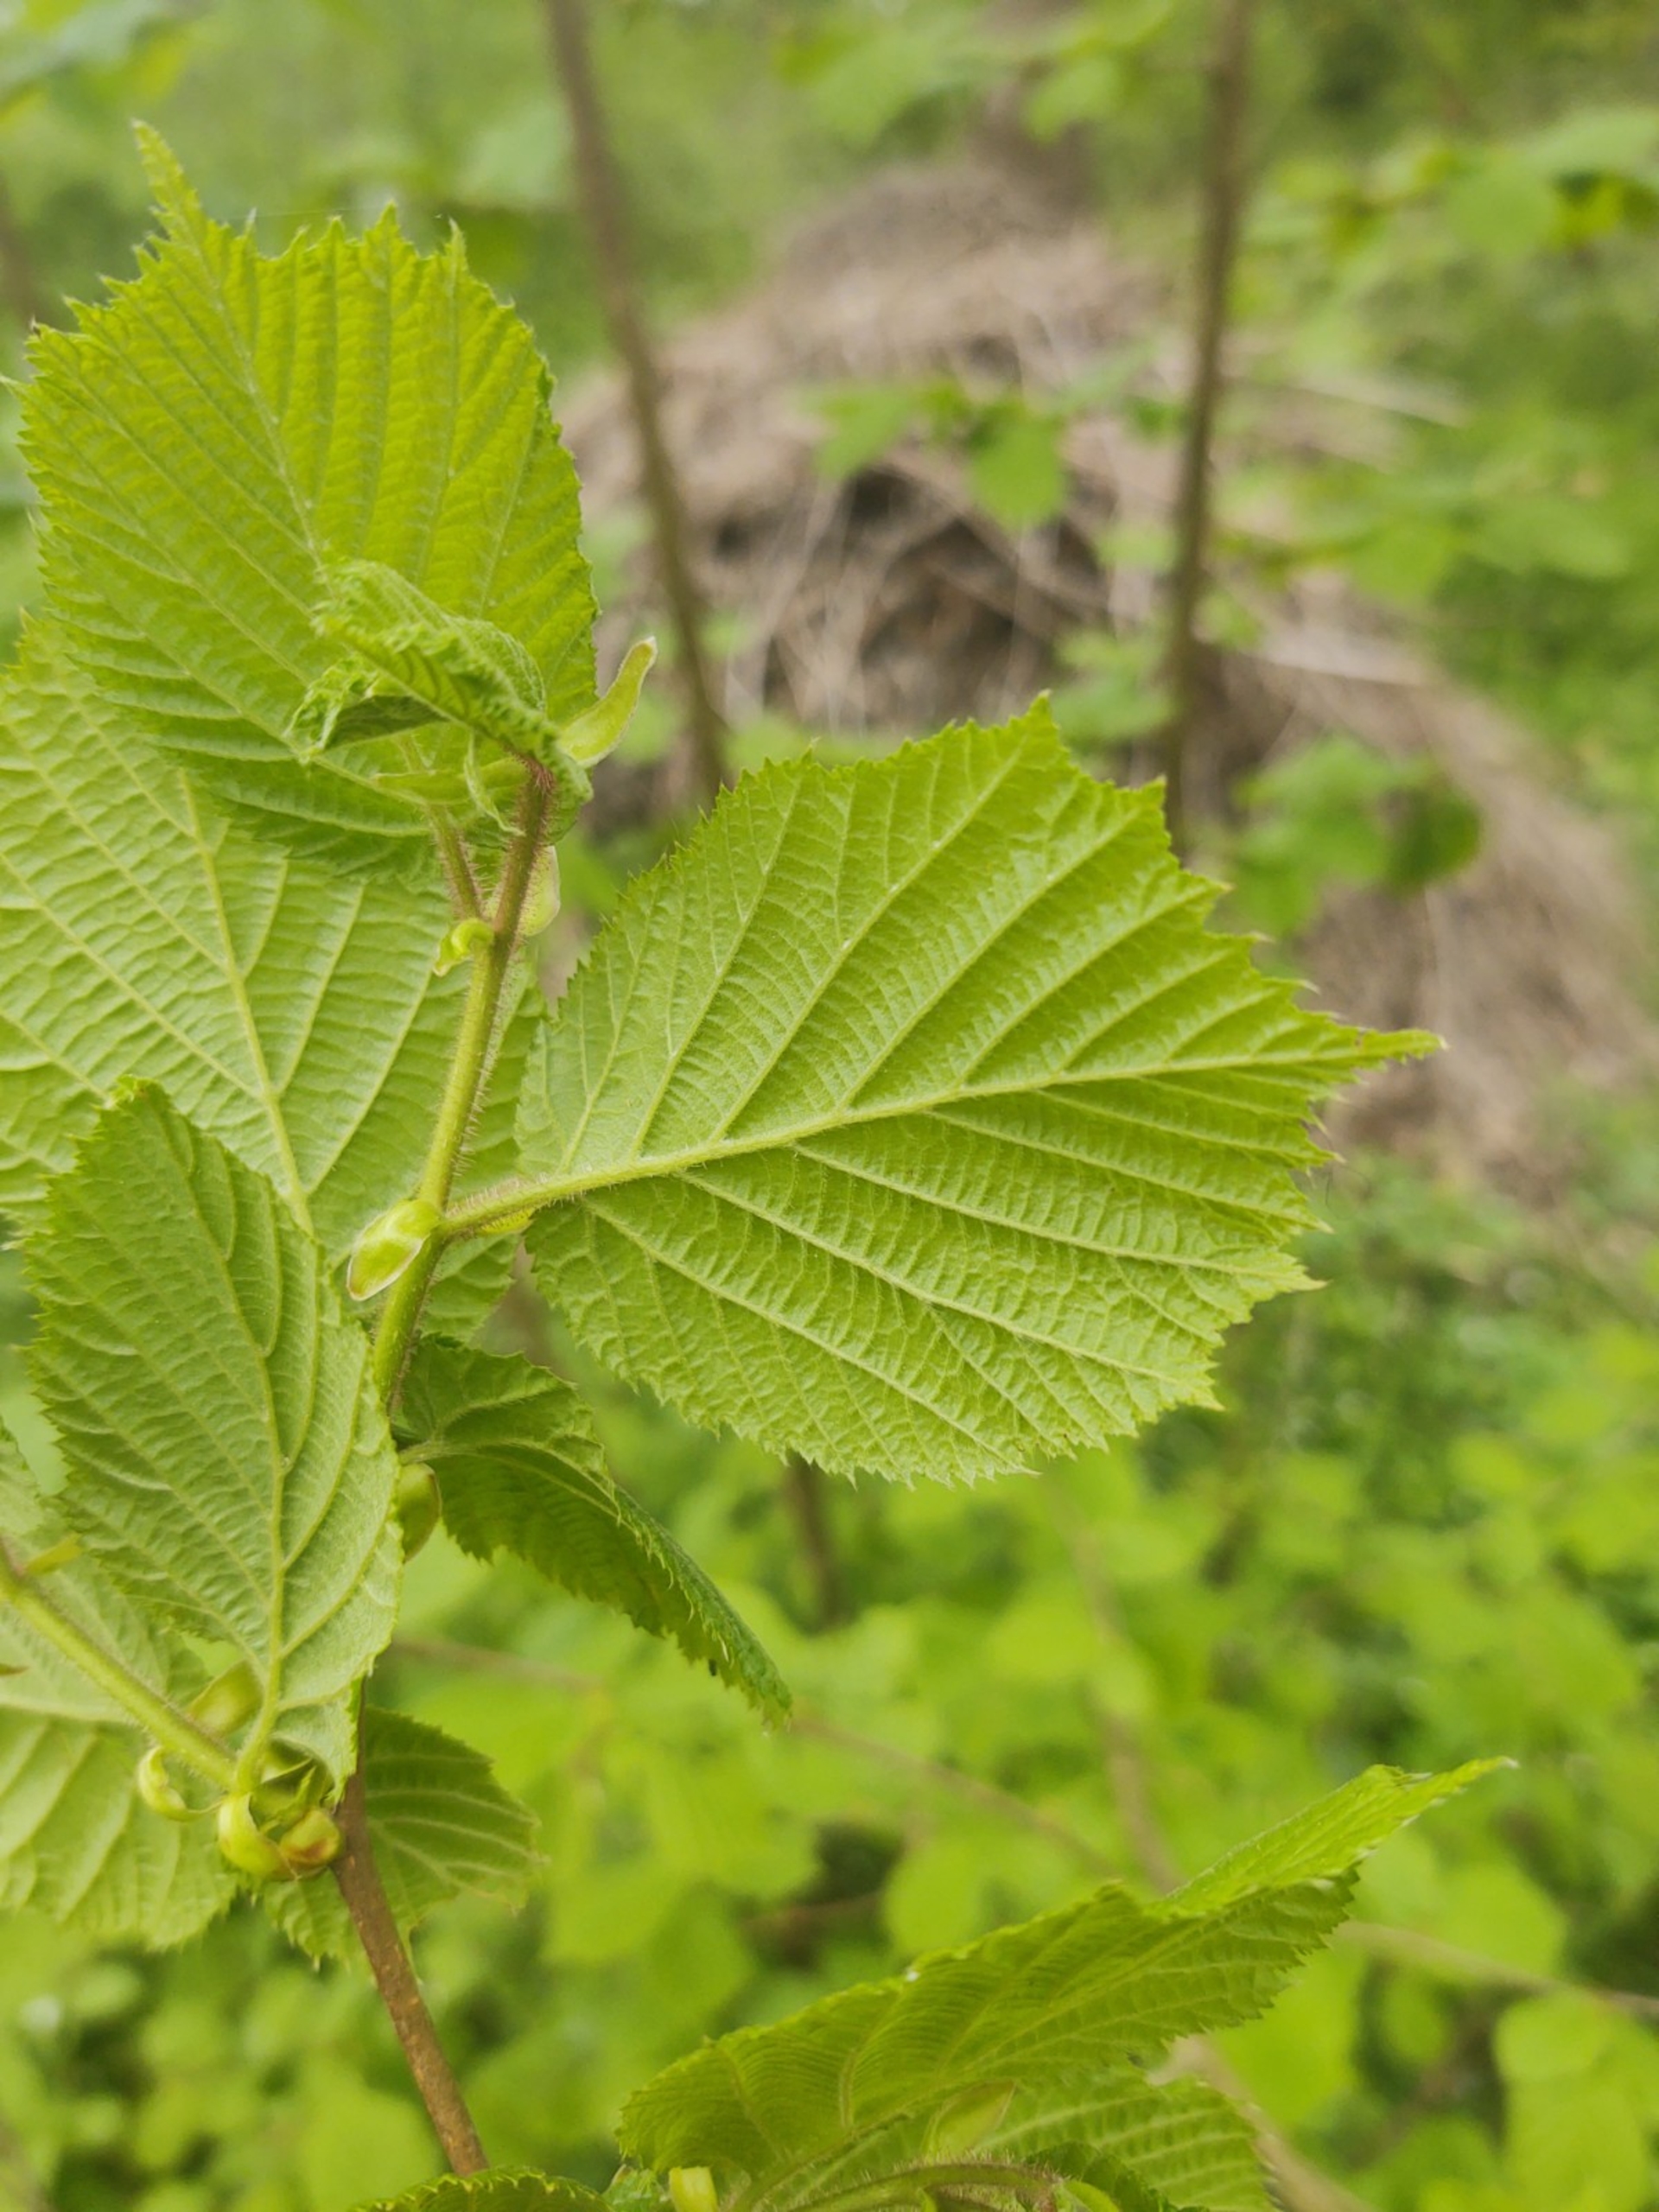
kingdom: Plantae
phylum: Tracheophyta
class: Magnoliopsida
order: Fagales
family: Betulaceae
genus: Corylus
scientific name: Corylus avellana
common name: Hassel
